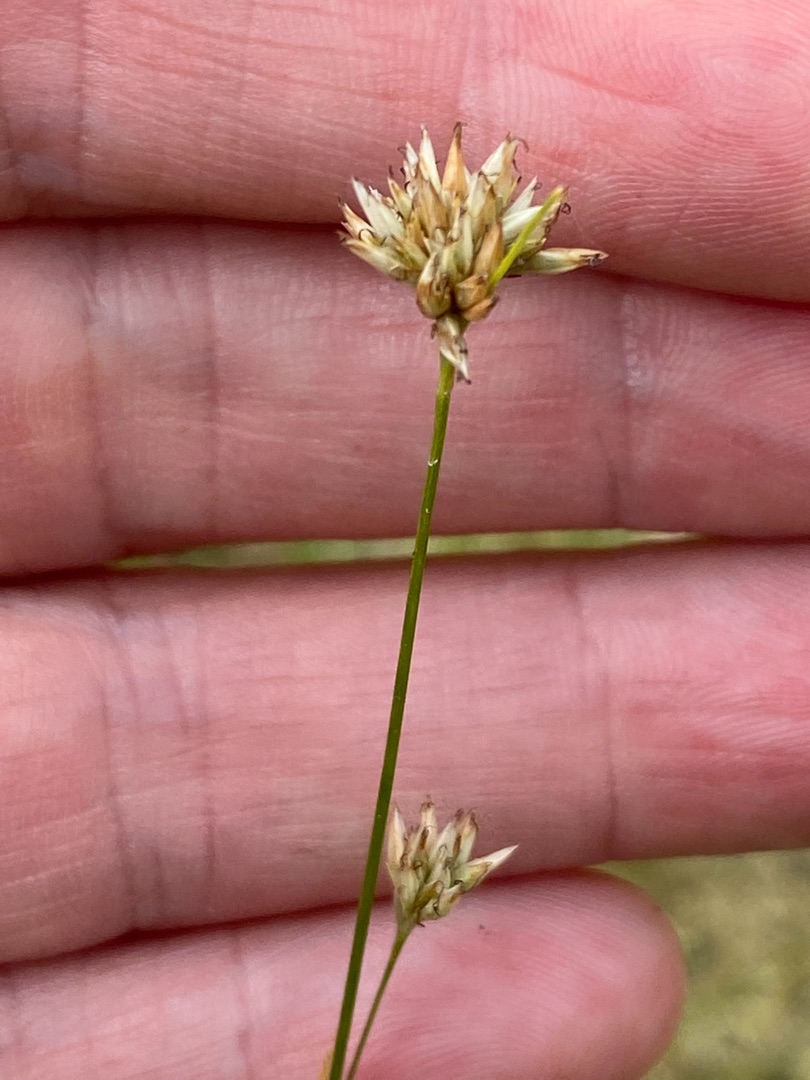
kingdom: Plantae
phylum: Tracheophyta
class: Liliopsida
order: Poales
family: Cyperaceae
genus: Rhynchospora
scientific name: Rhynchospora alba
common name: Hvid næbfrø
